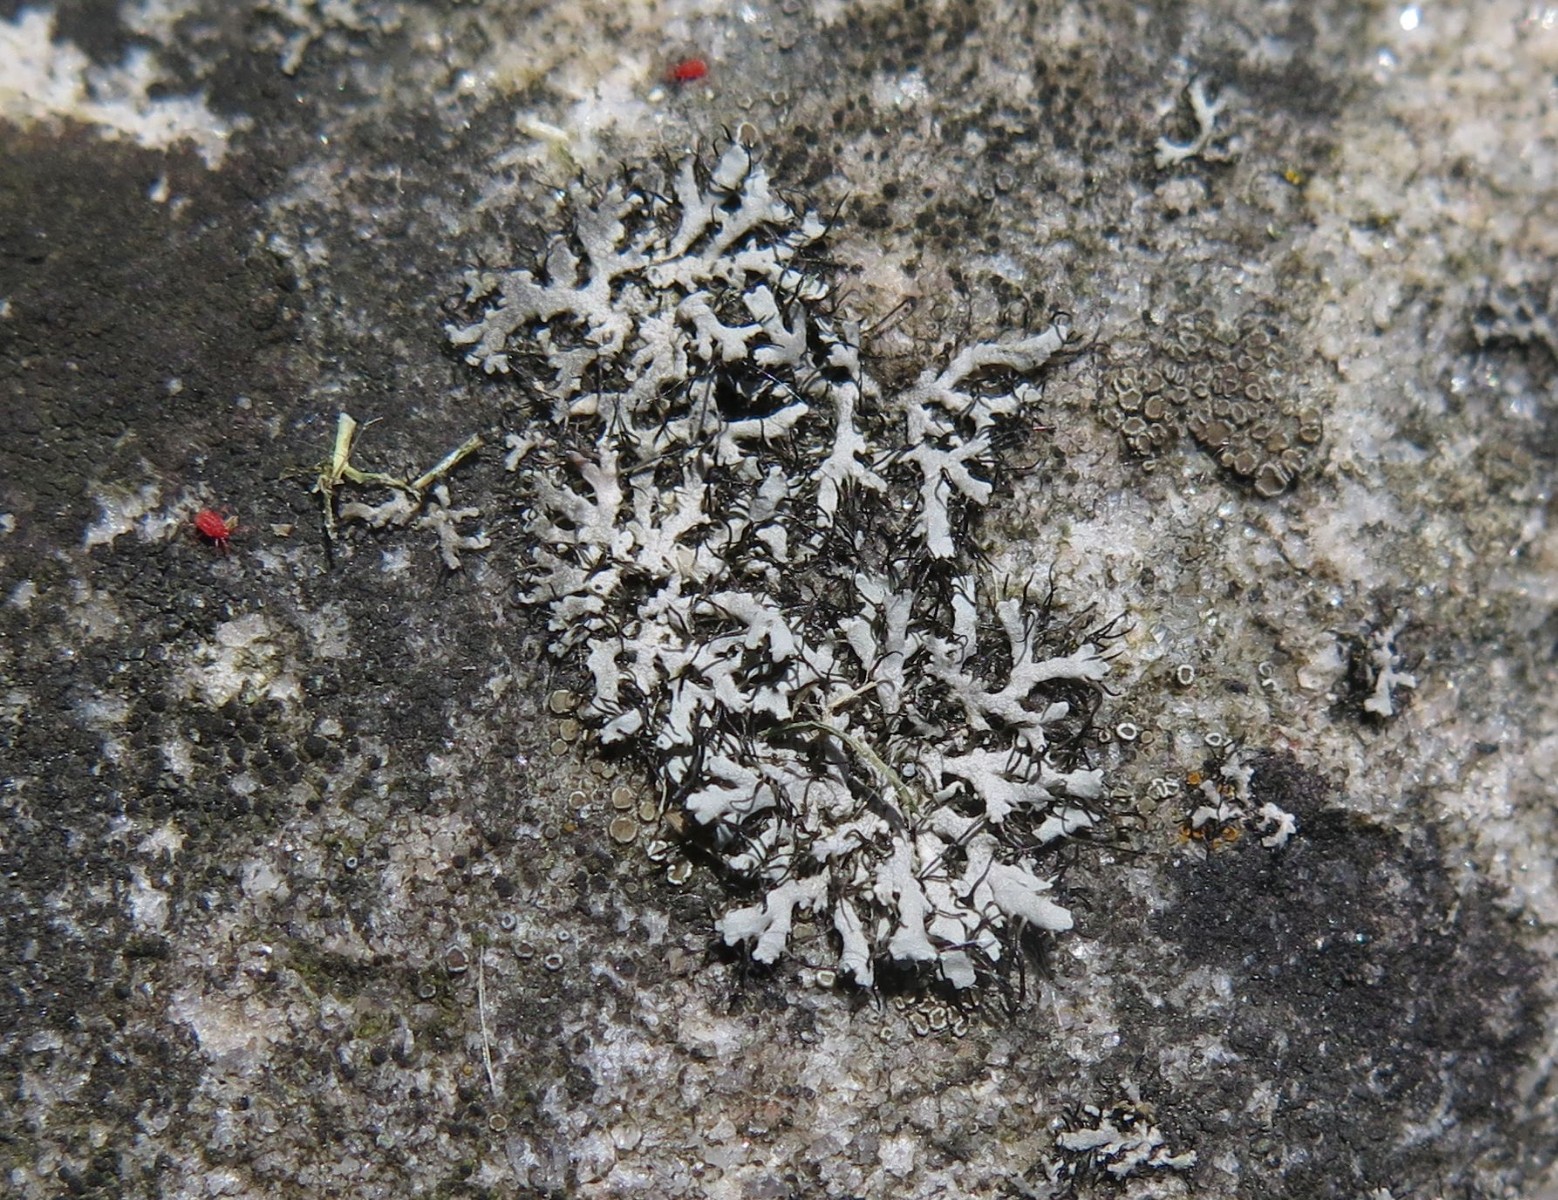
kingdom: Fungi
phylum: Ascomycota
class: Lecanoromycetes
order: Caliciales
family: Physciaceae
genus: Physcia
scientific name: Physcia tenella
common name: spæd rosetlav
